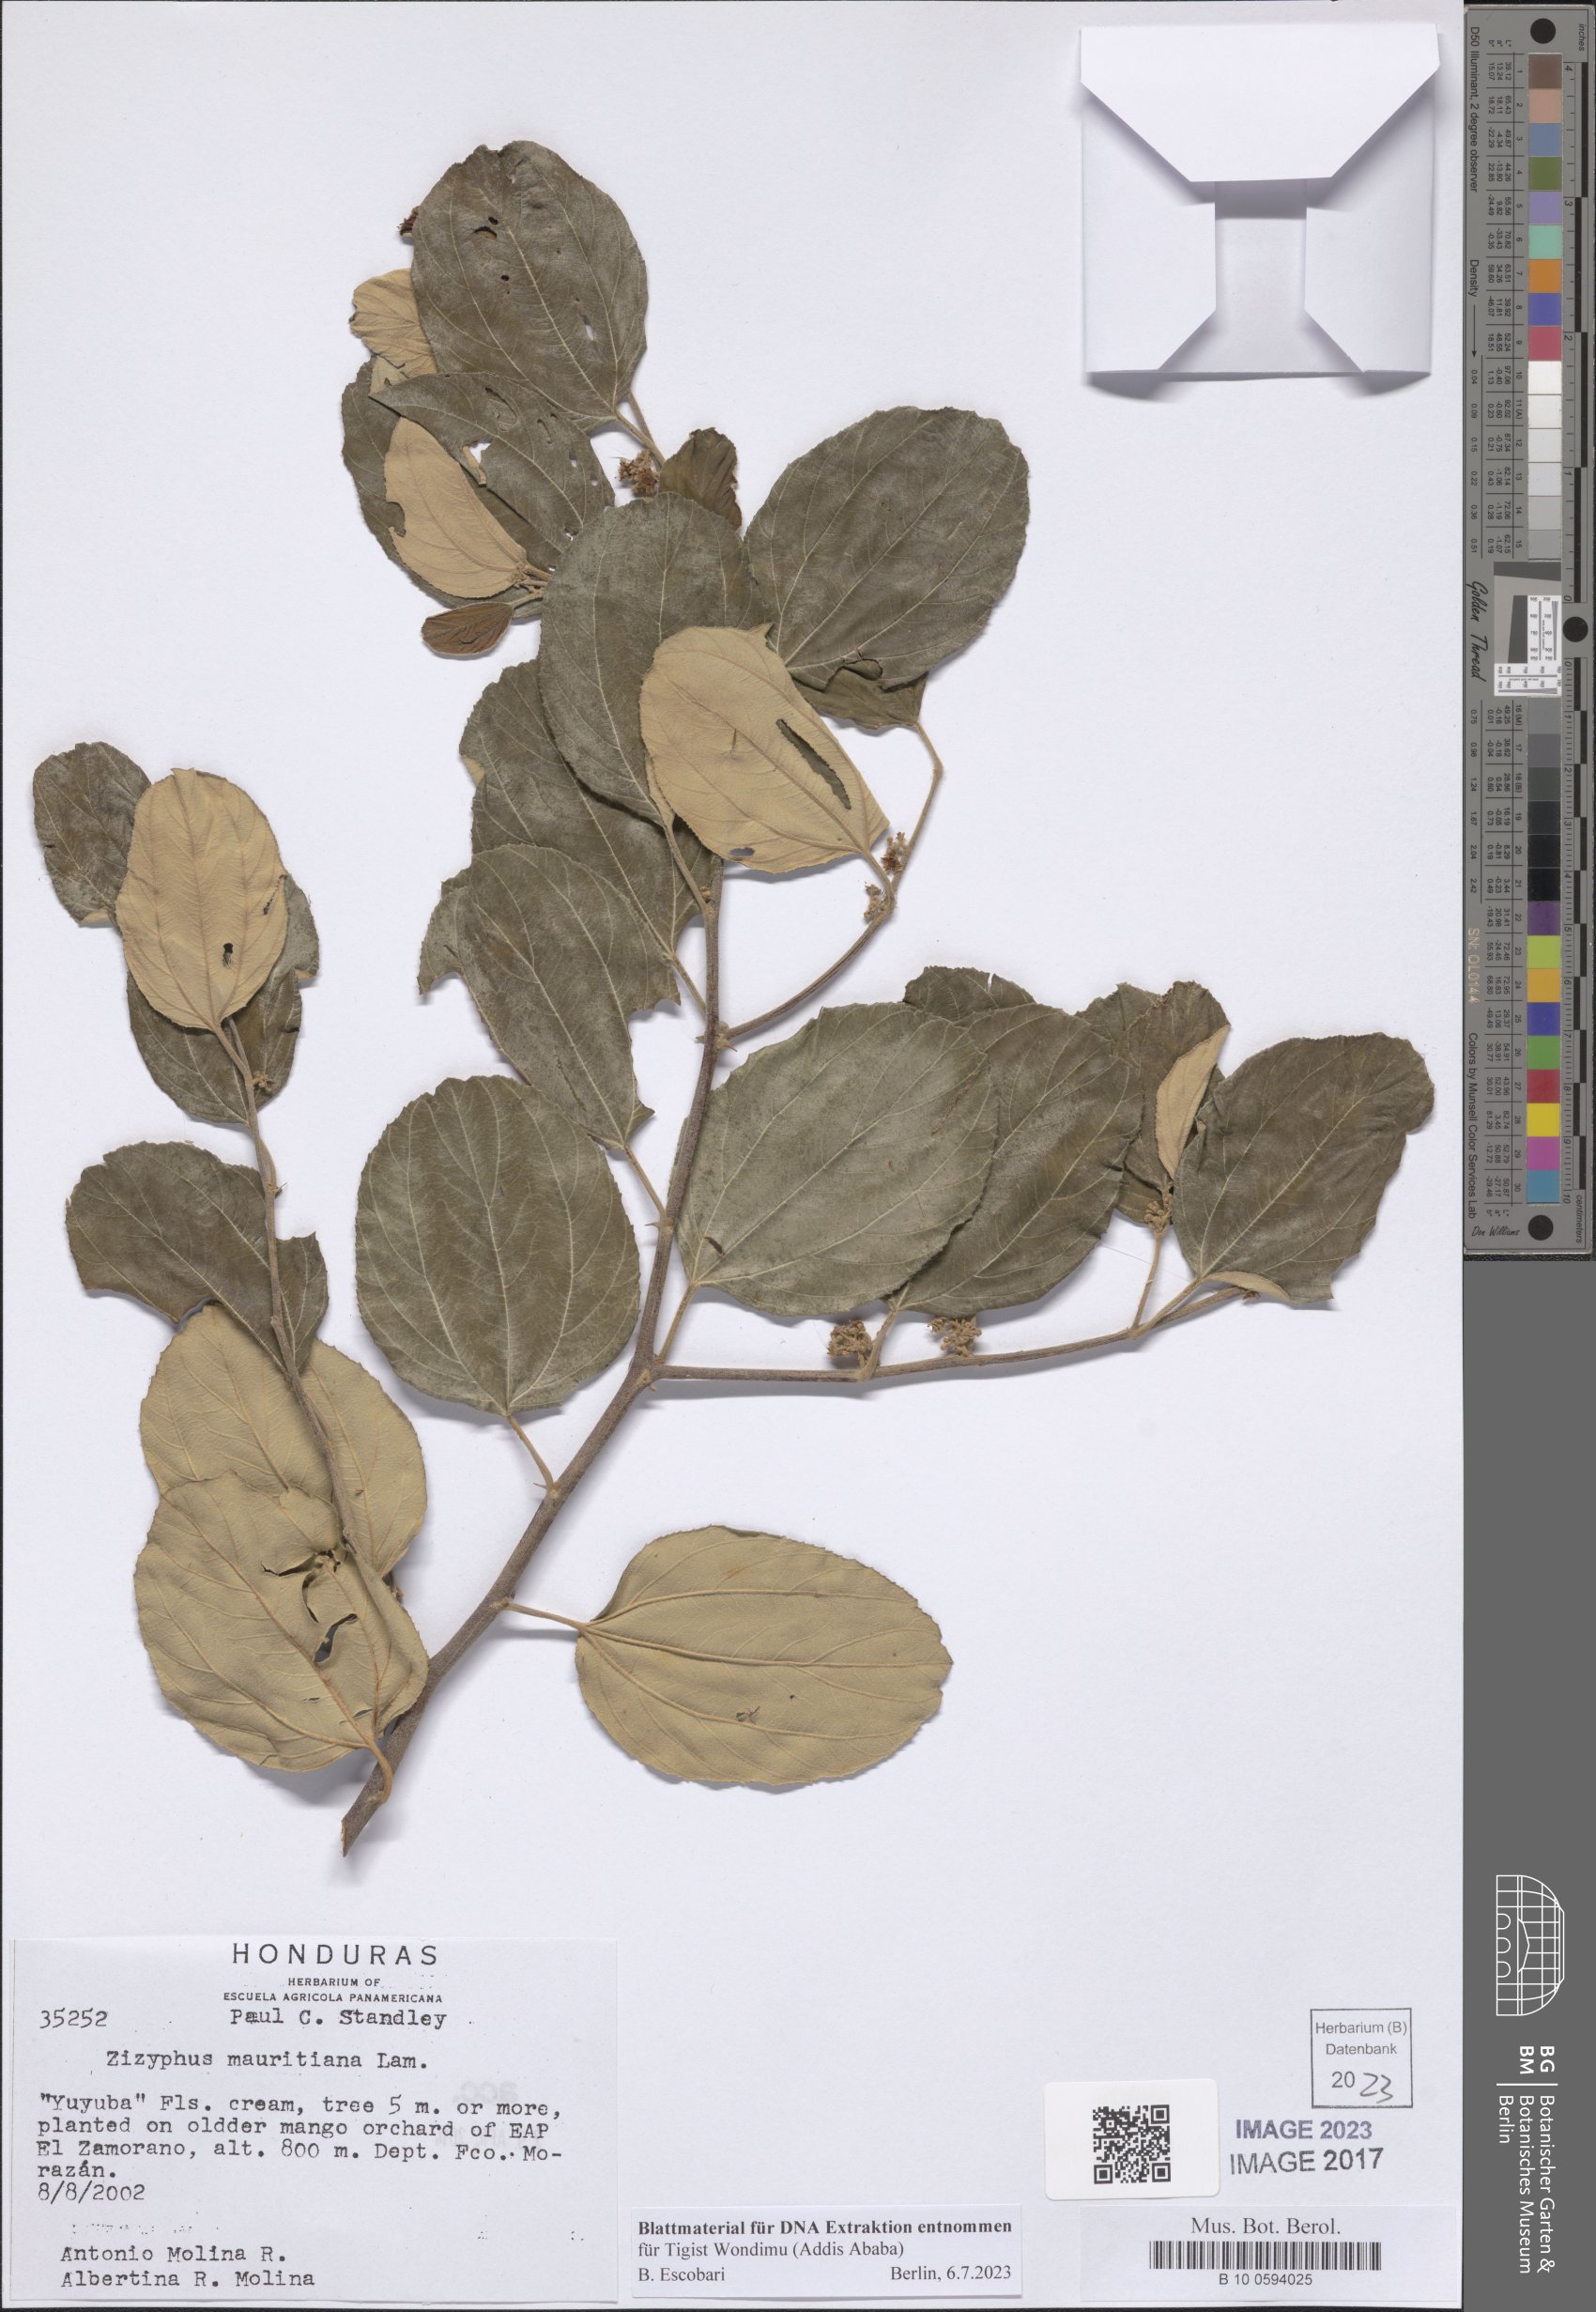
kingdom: Plantae
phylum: Tracheophyta
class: Magnoliopsida
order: Rosales
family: Rhamnaceae
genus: Ziziphus
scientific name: Ziziphus mauritiana
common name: Indian jujube
